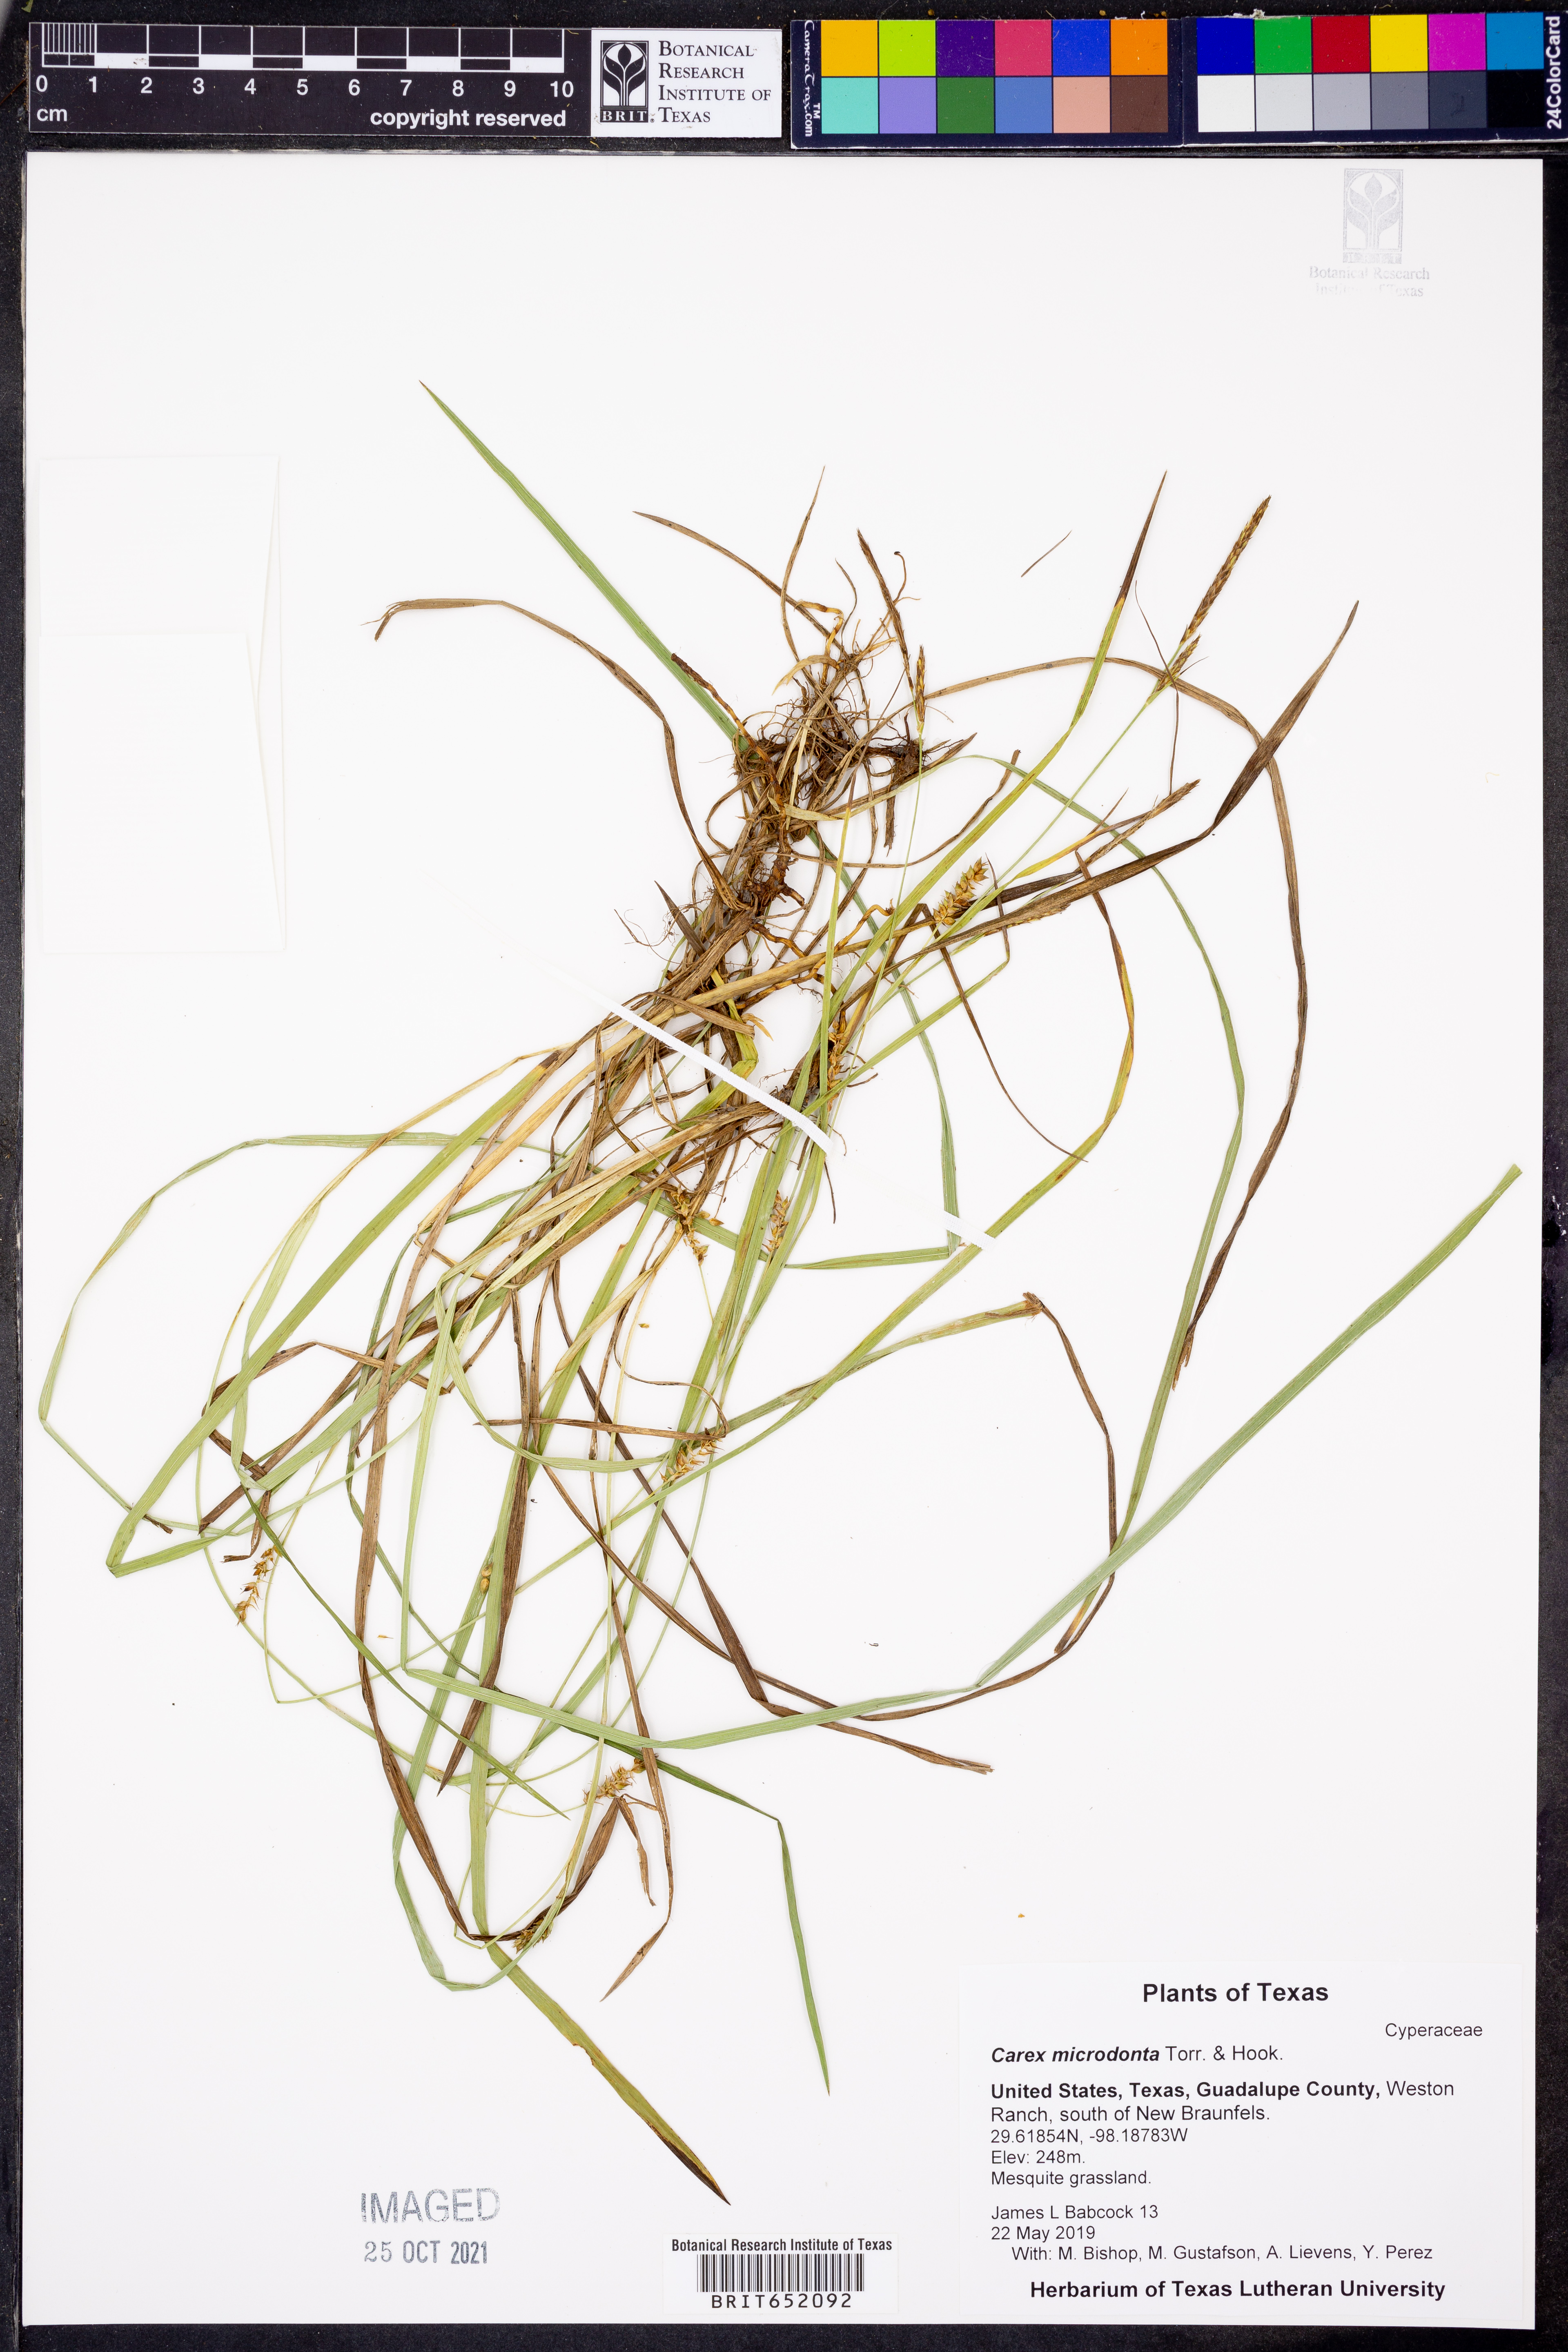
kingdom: Plantae
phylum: Tracheophyta
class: Liliopsida
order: Poales
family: Cyperaceae
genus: Carex
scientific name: Carex microdonta
